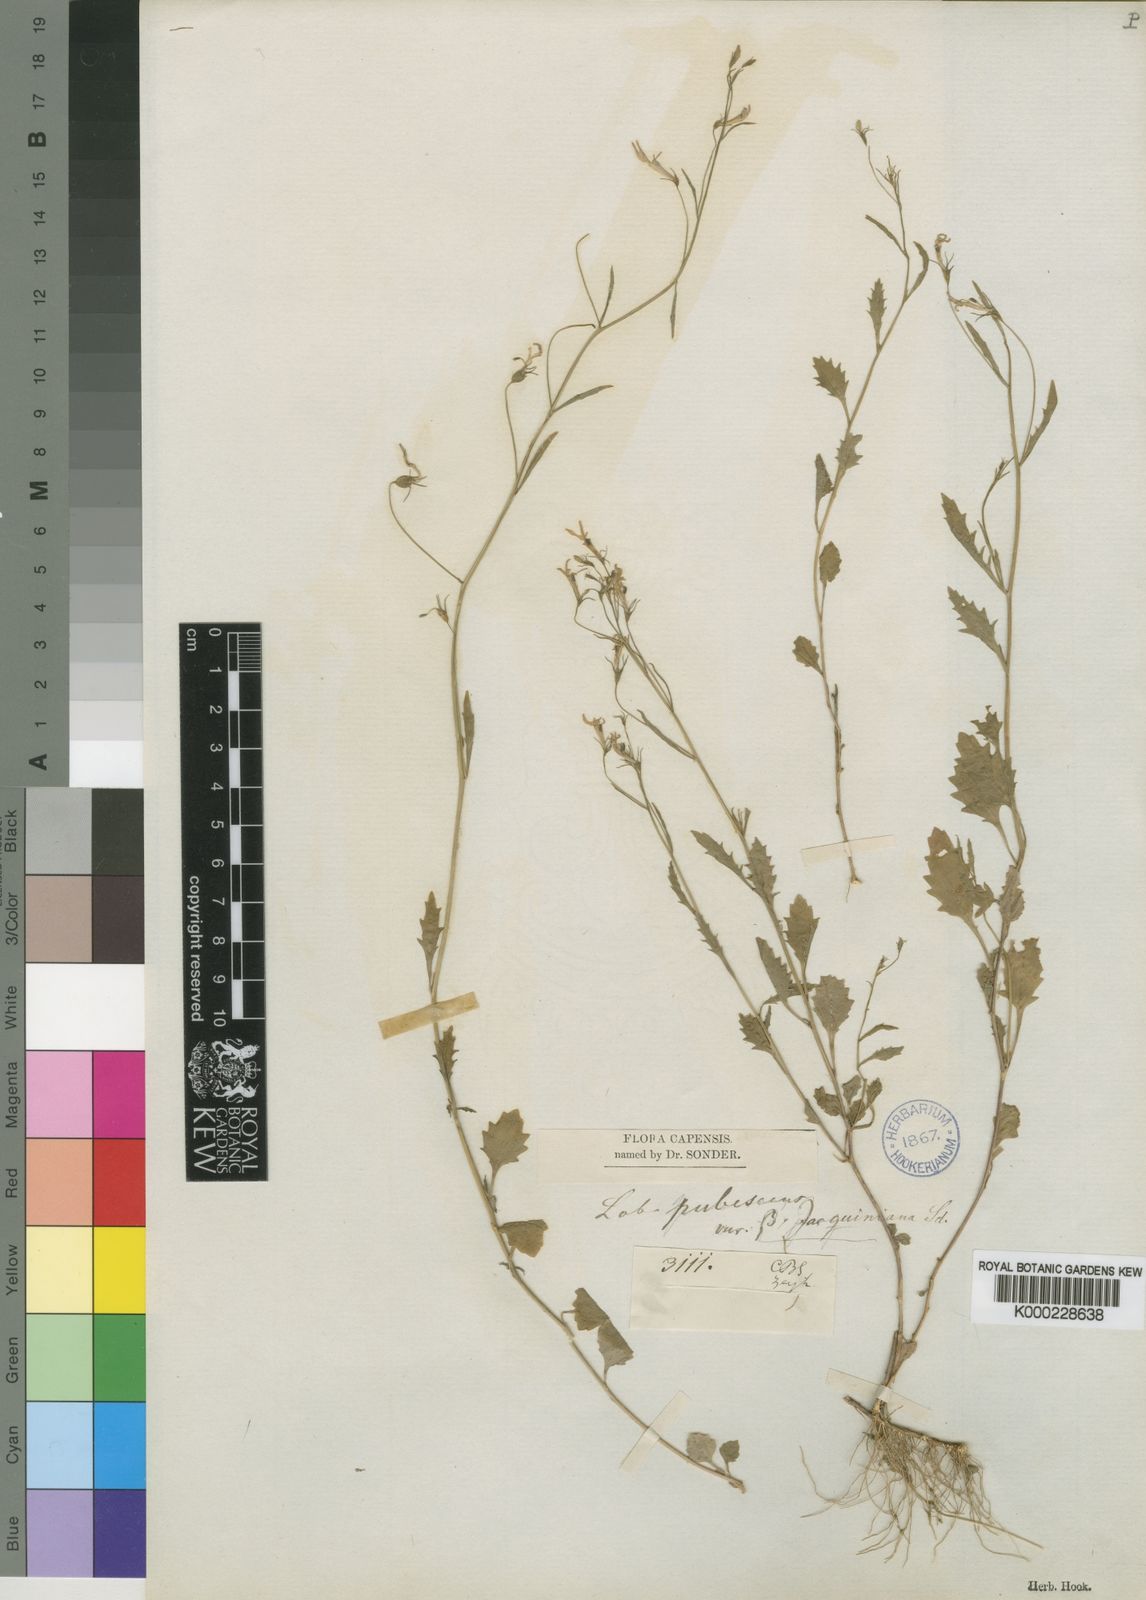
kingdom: Plantae
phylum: Tracheophyta
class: Magnoliopsida
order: Asterales
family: Campanulaceae
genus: Lobelia
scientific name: Lobelia pubescens
